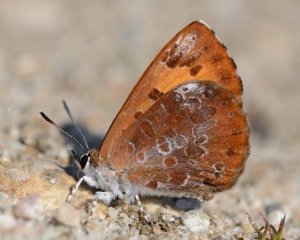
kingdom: Animalia
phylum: Arthropoda
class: Insecta
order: Lepidoptera
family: Lycaenidae
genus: Feniseca
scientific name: Feniseca tarquinius
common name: Harvester
